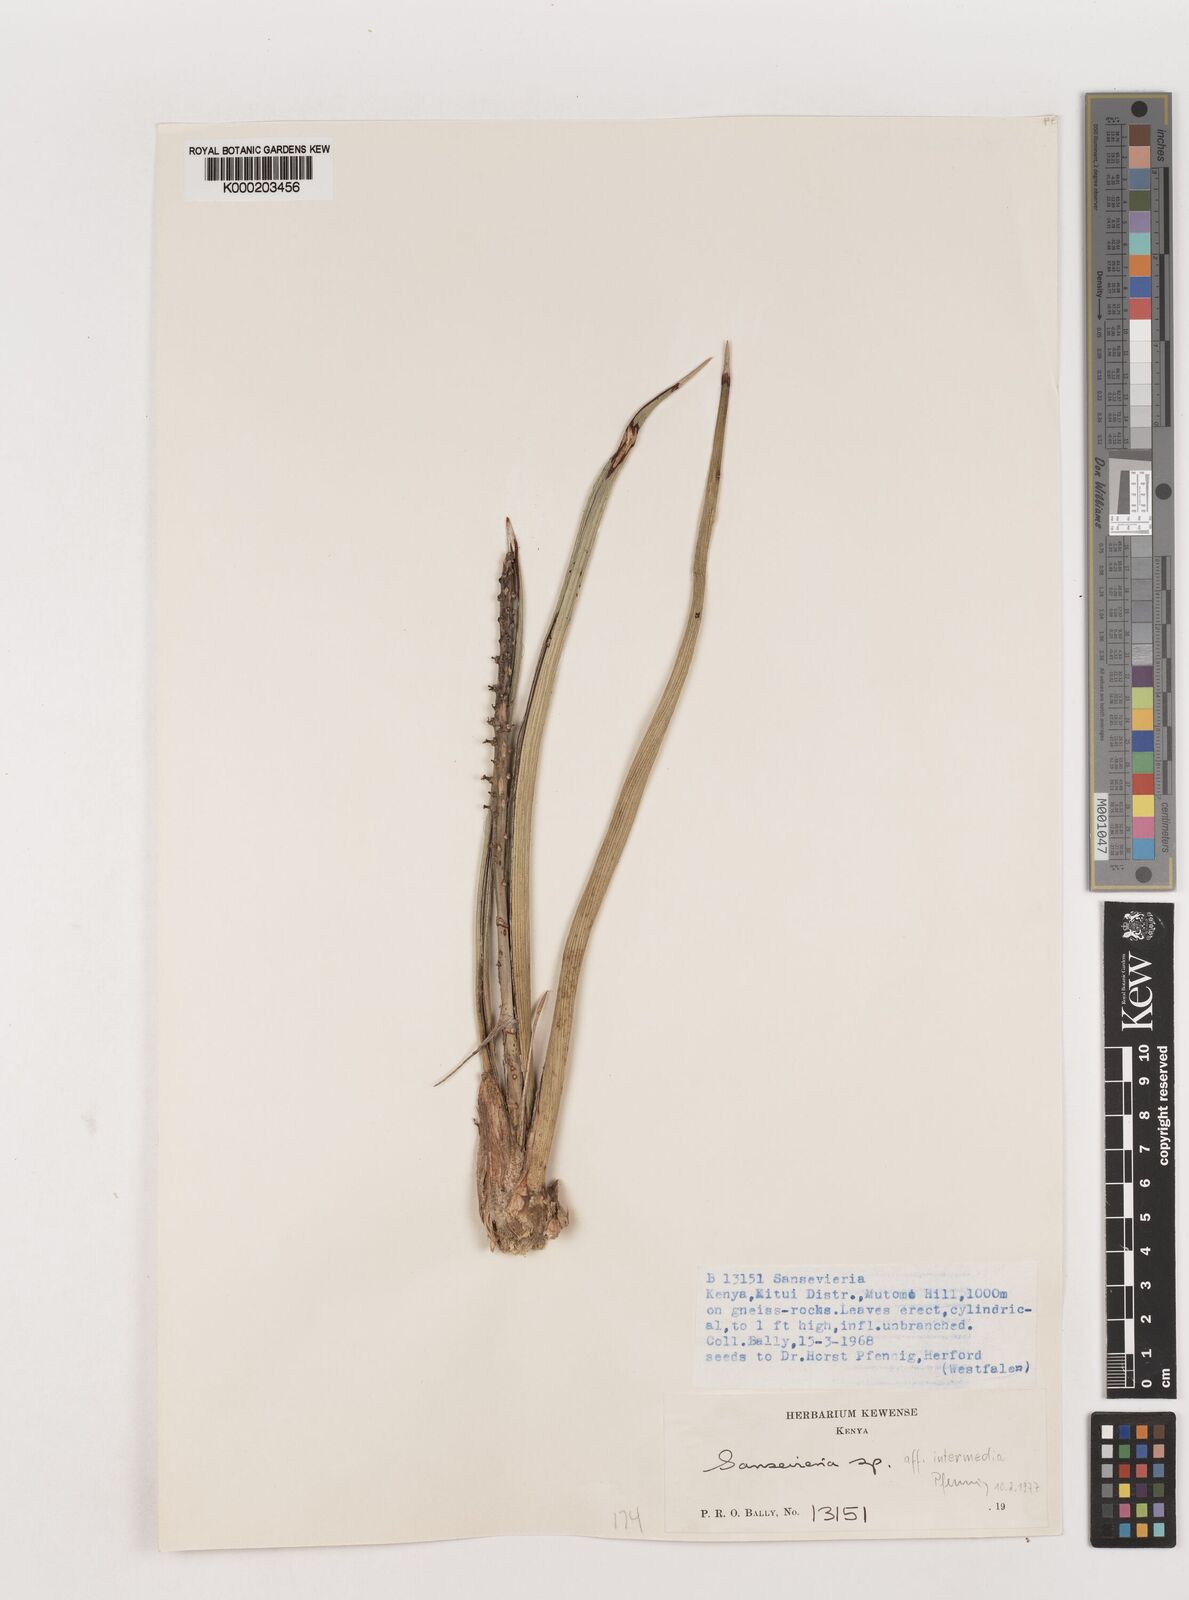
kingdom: Plantae
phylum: Tracheophyta
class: Liliopsida
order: Asparagales
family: Asparagaceae
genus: Dracaena
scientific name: Dracaena volkensii
